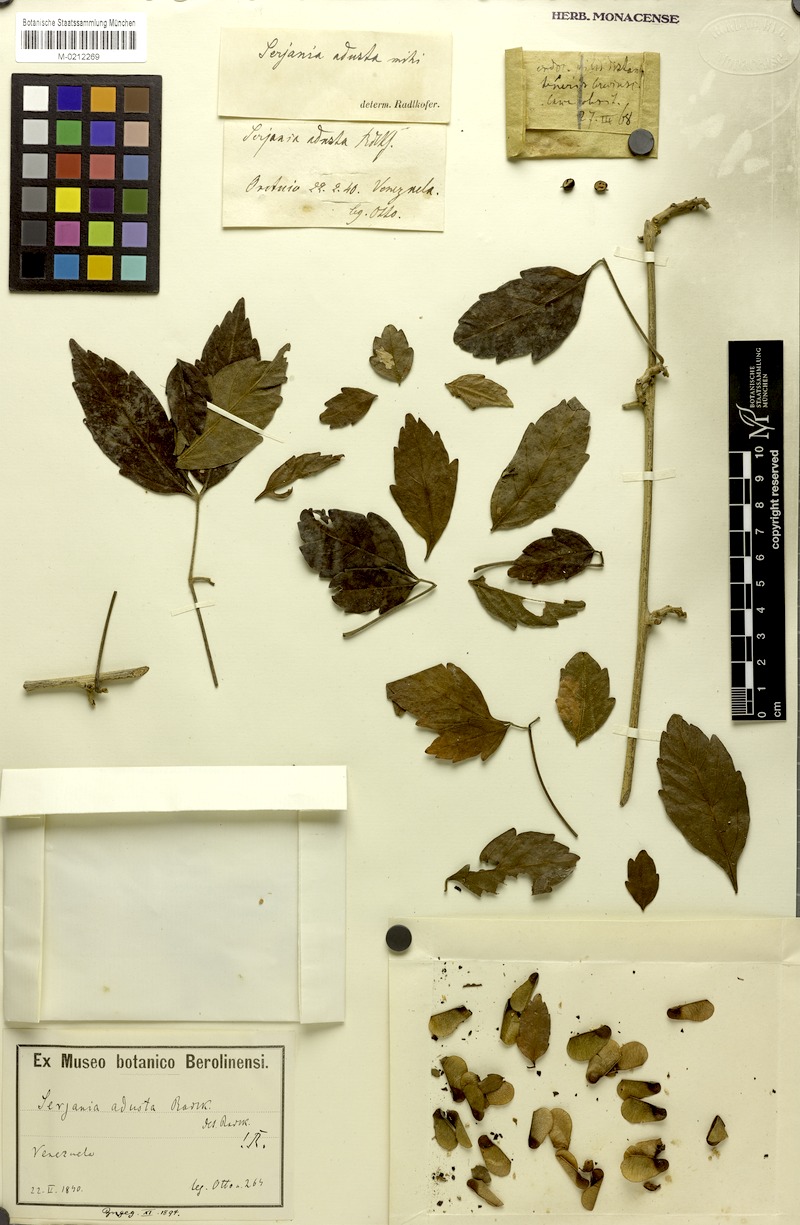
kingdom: Plantae
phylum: Tracheophyta
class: Magnoliopsida
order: Sapindales
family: Sapindaceae
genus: Serjania
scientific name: Serjania adusta
